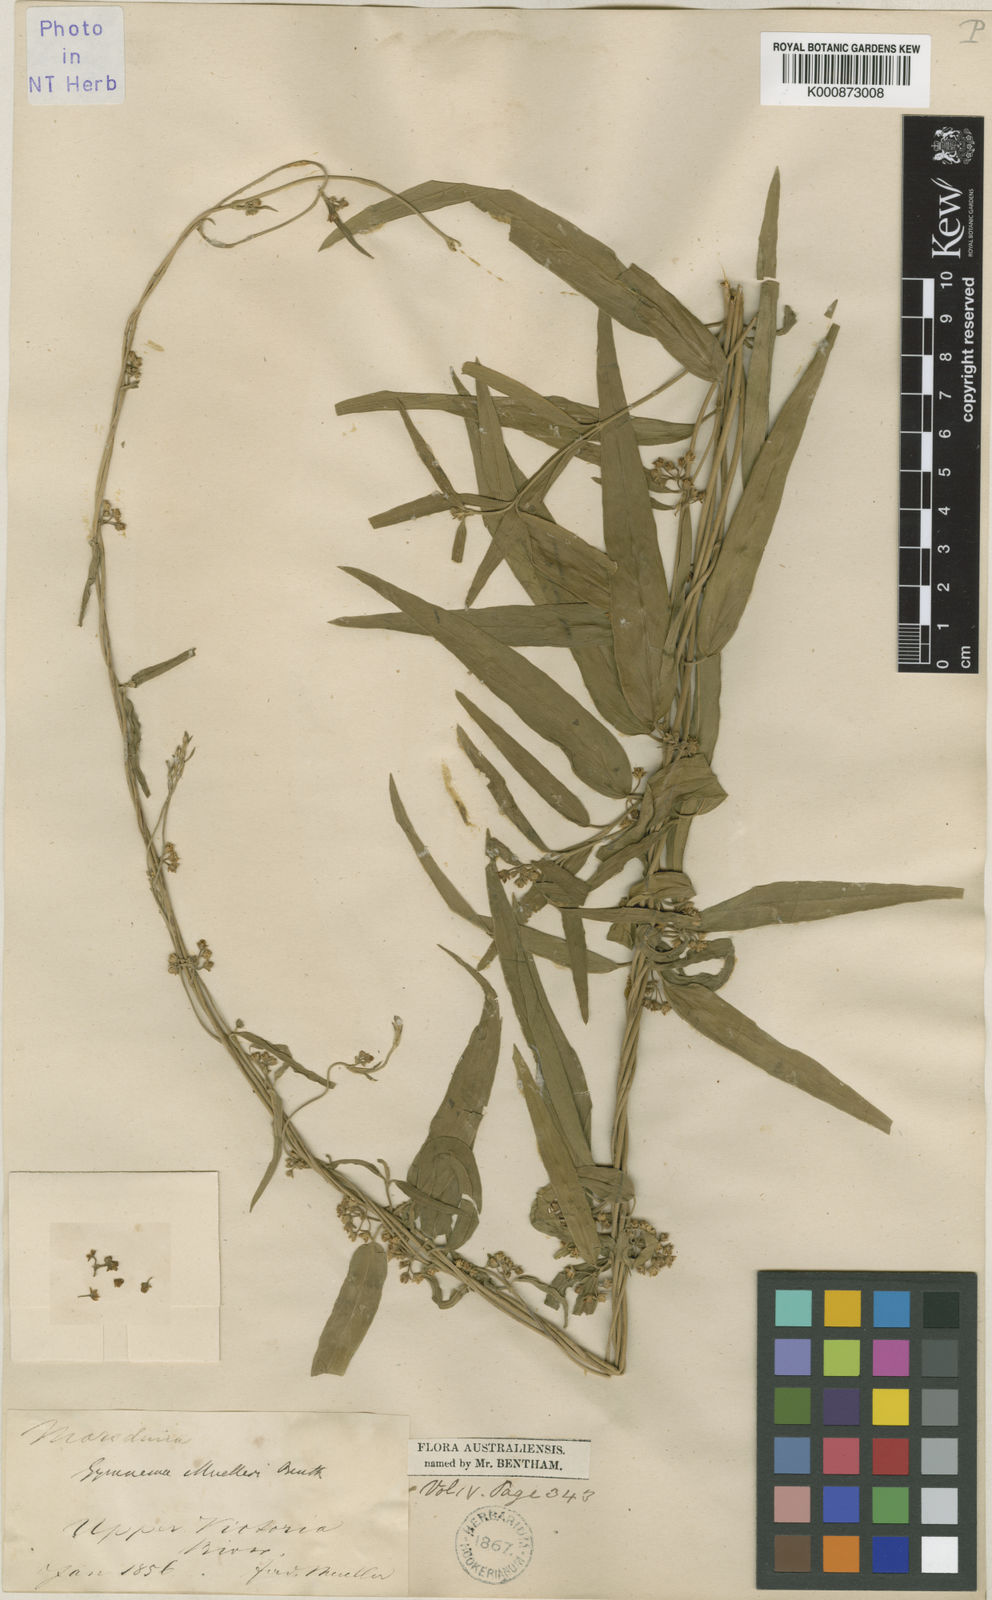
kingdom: Plantae
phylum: Tracheophyta
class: Magnoliopsida
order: Gentianales
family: Apocynaceae
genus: Gymnema
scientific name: Gymnema muelleri
